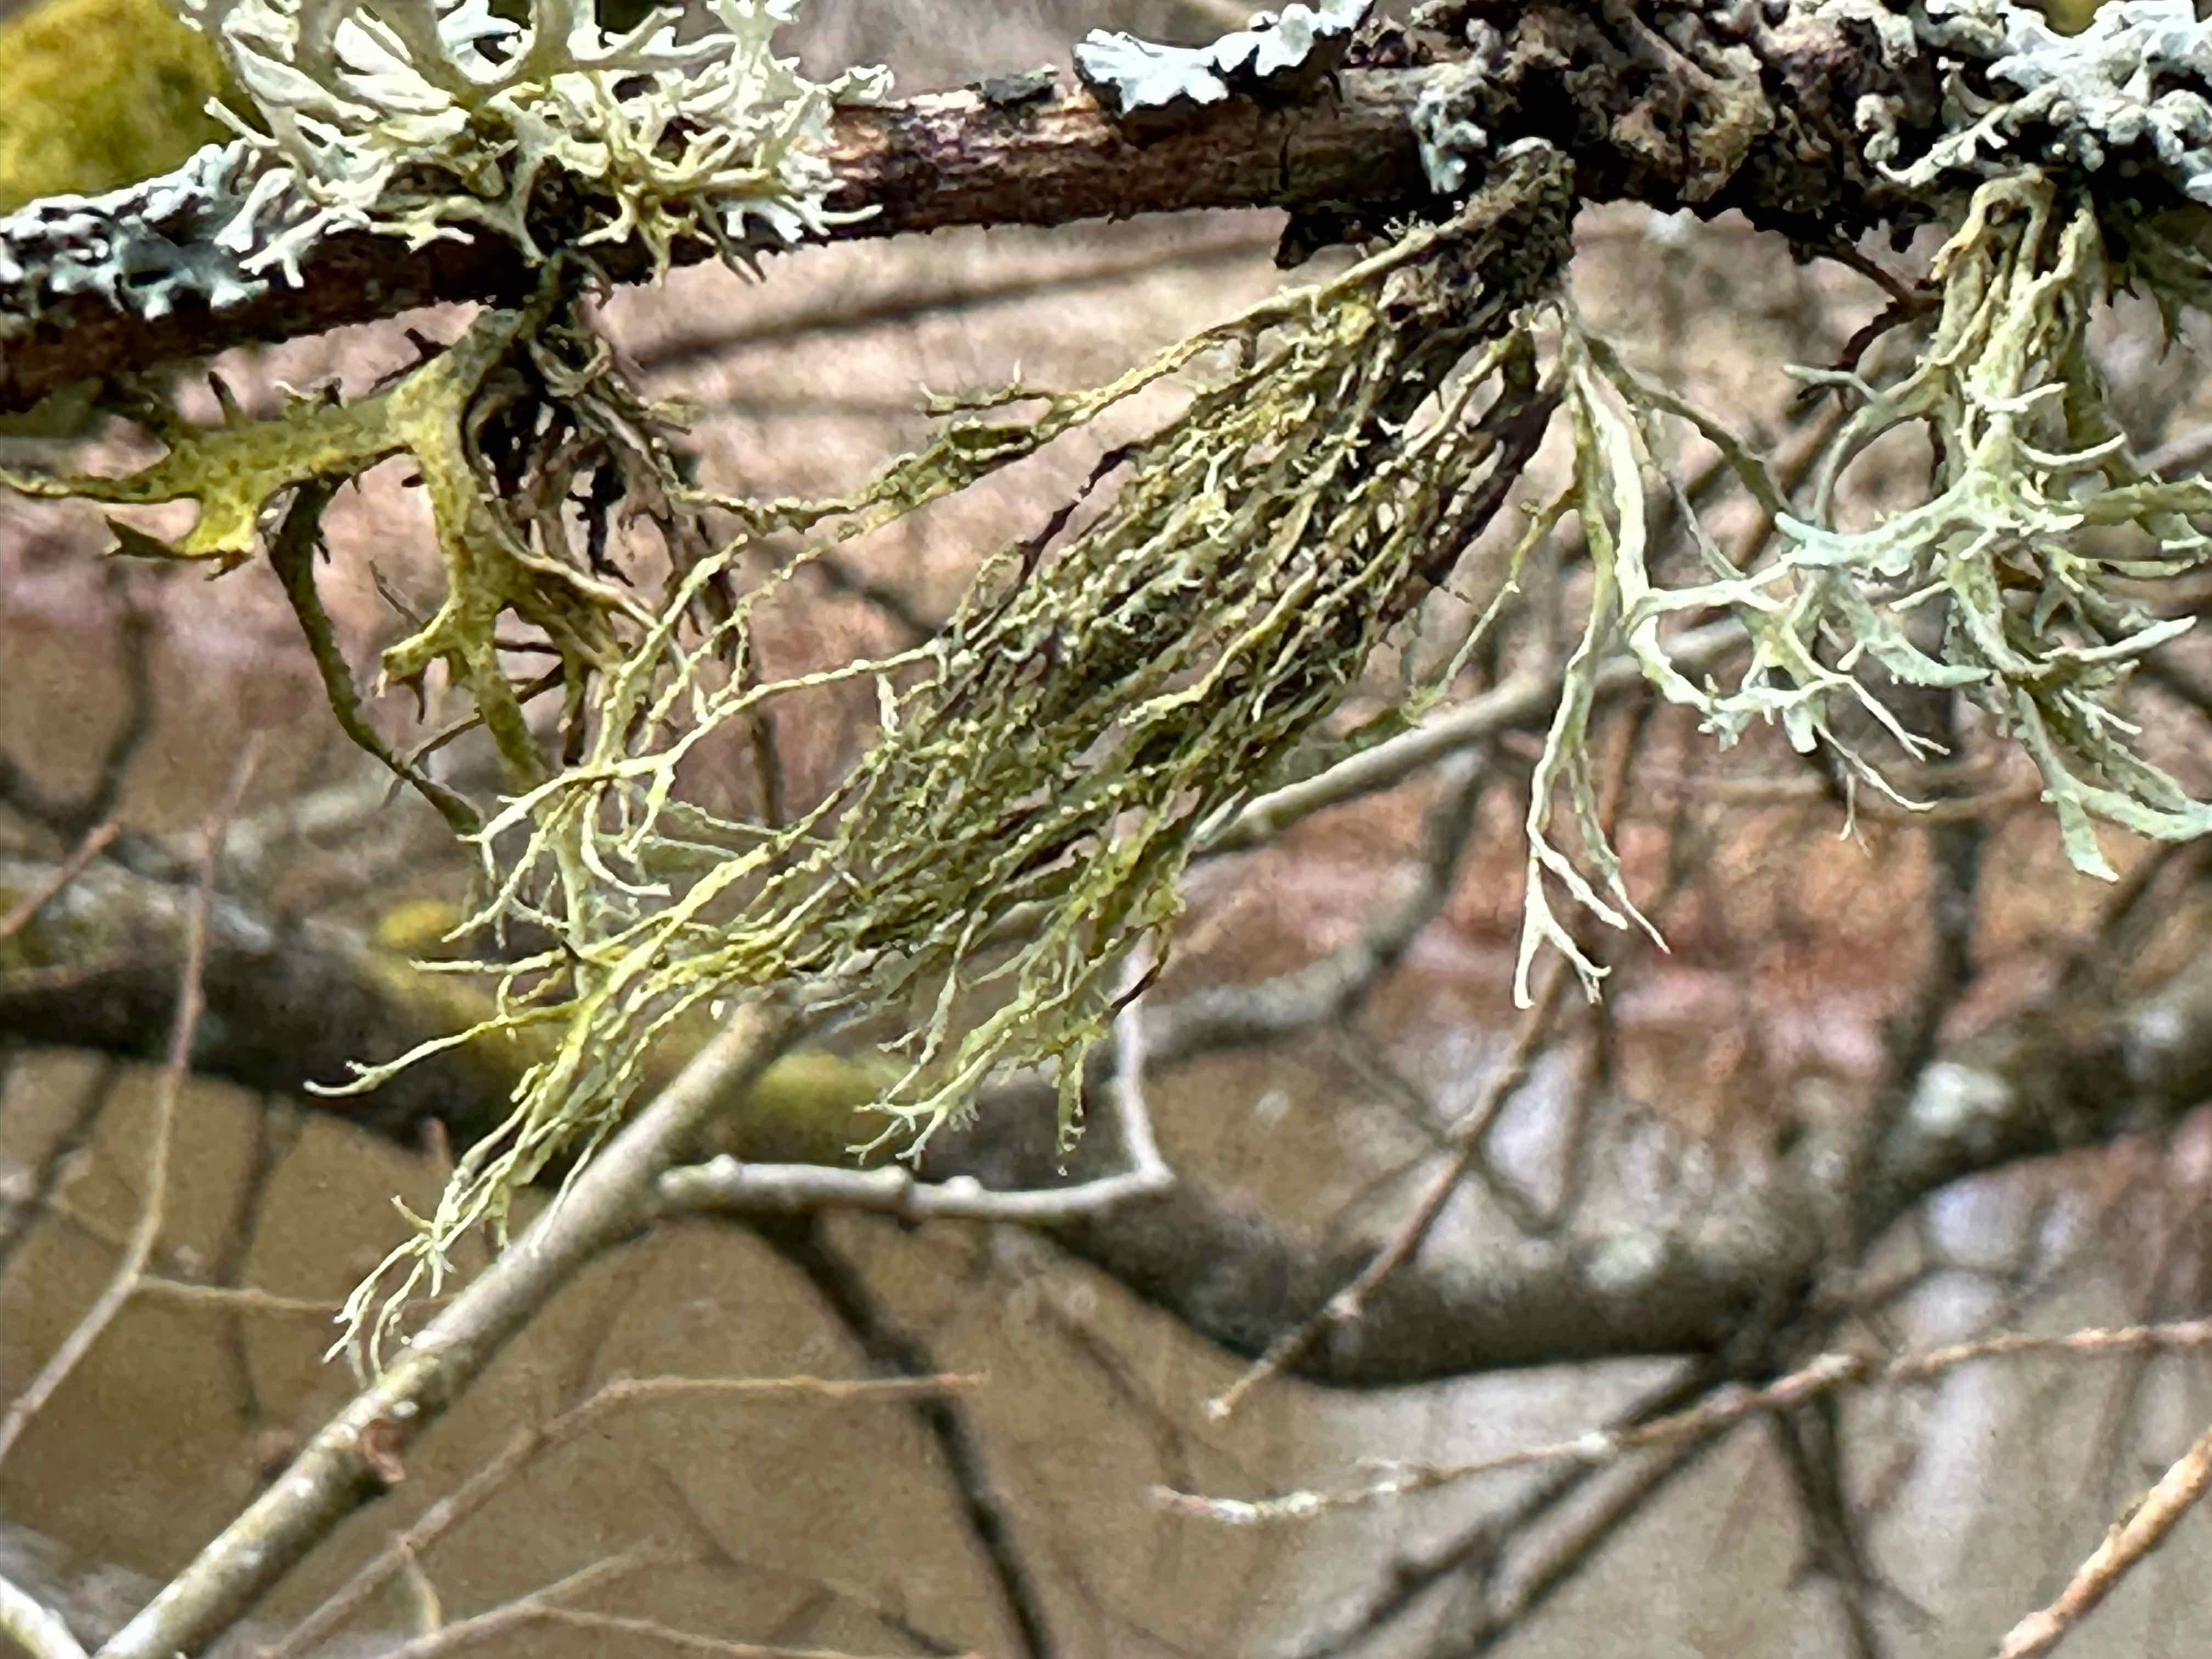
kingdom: Fungi
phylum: Ascomycota
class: Lecanoromycetes
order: Lecanorales
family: Ramalinaceae
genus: Ramalina
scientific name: Ramalina farinacea
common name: melet grenlav
